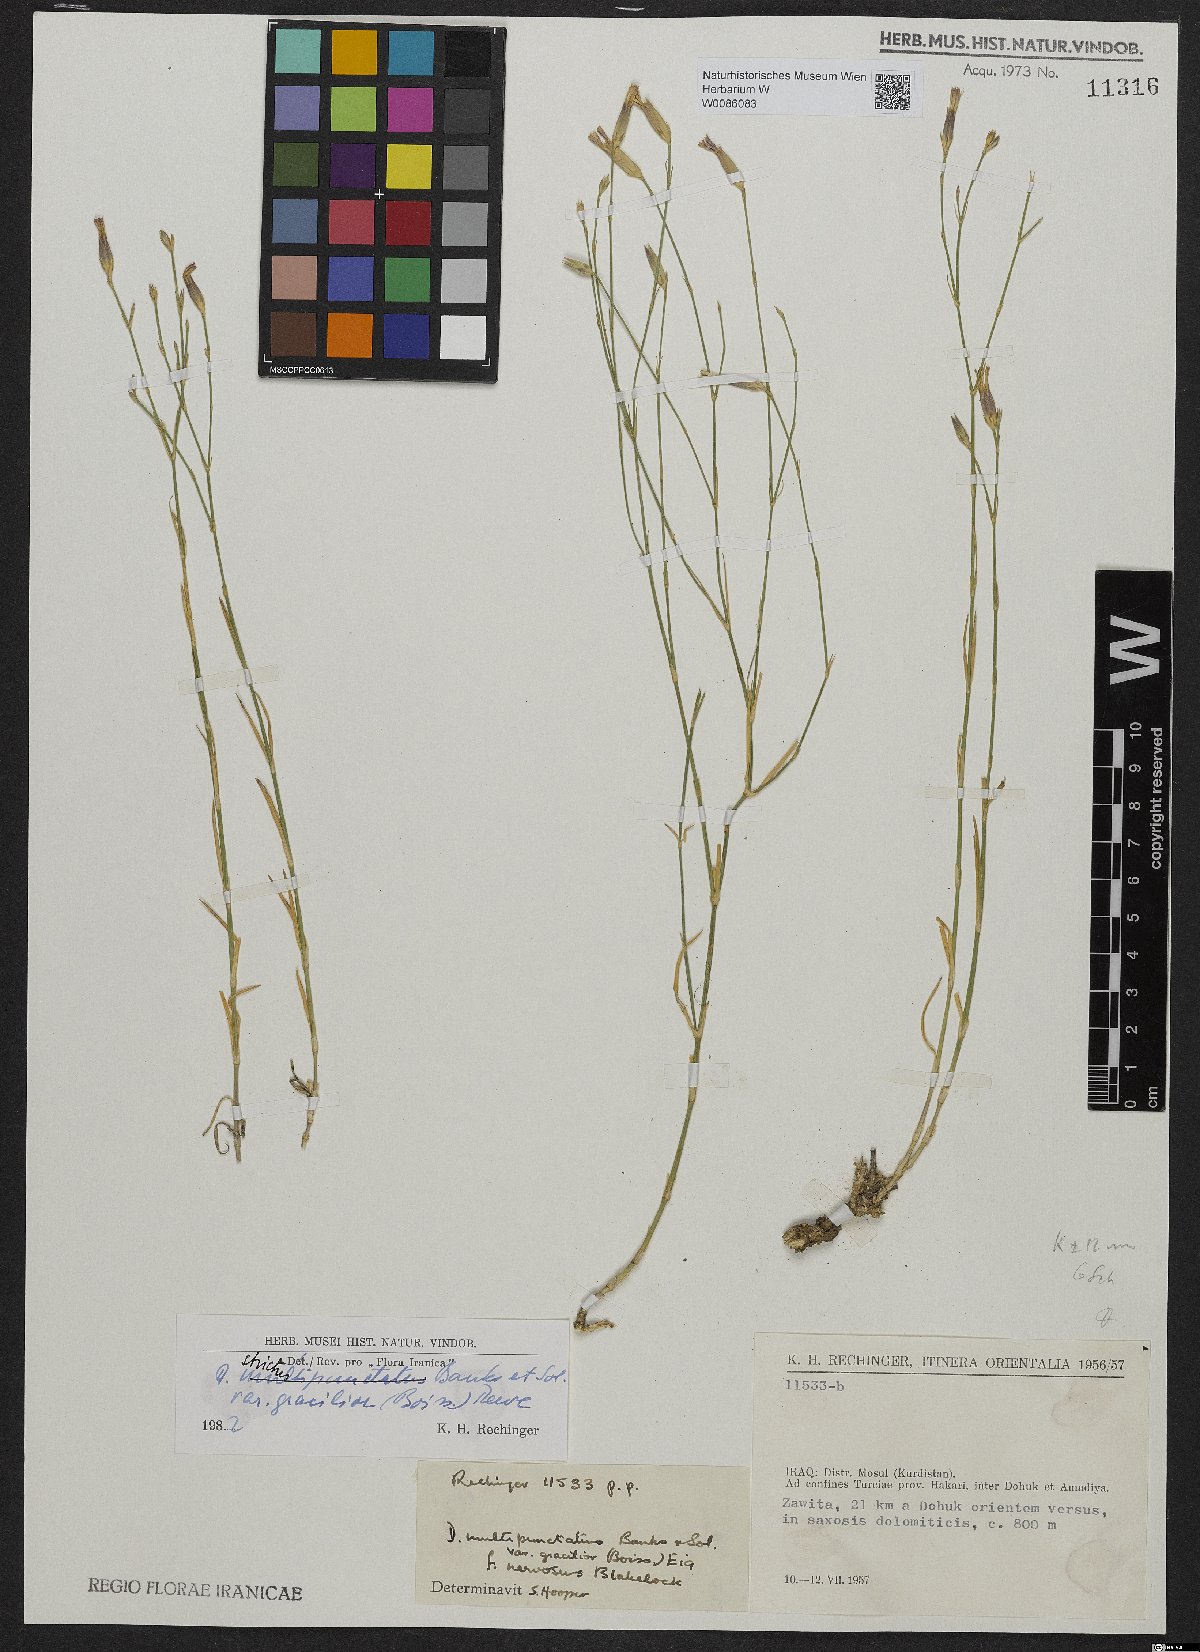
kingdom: Plantae
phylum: Tracheophyta
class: Magnoliopsida
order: Caryophyllales
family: Caryophyllaceae
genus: Dianthus
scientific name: Dianthus strictus
